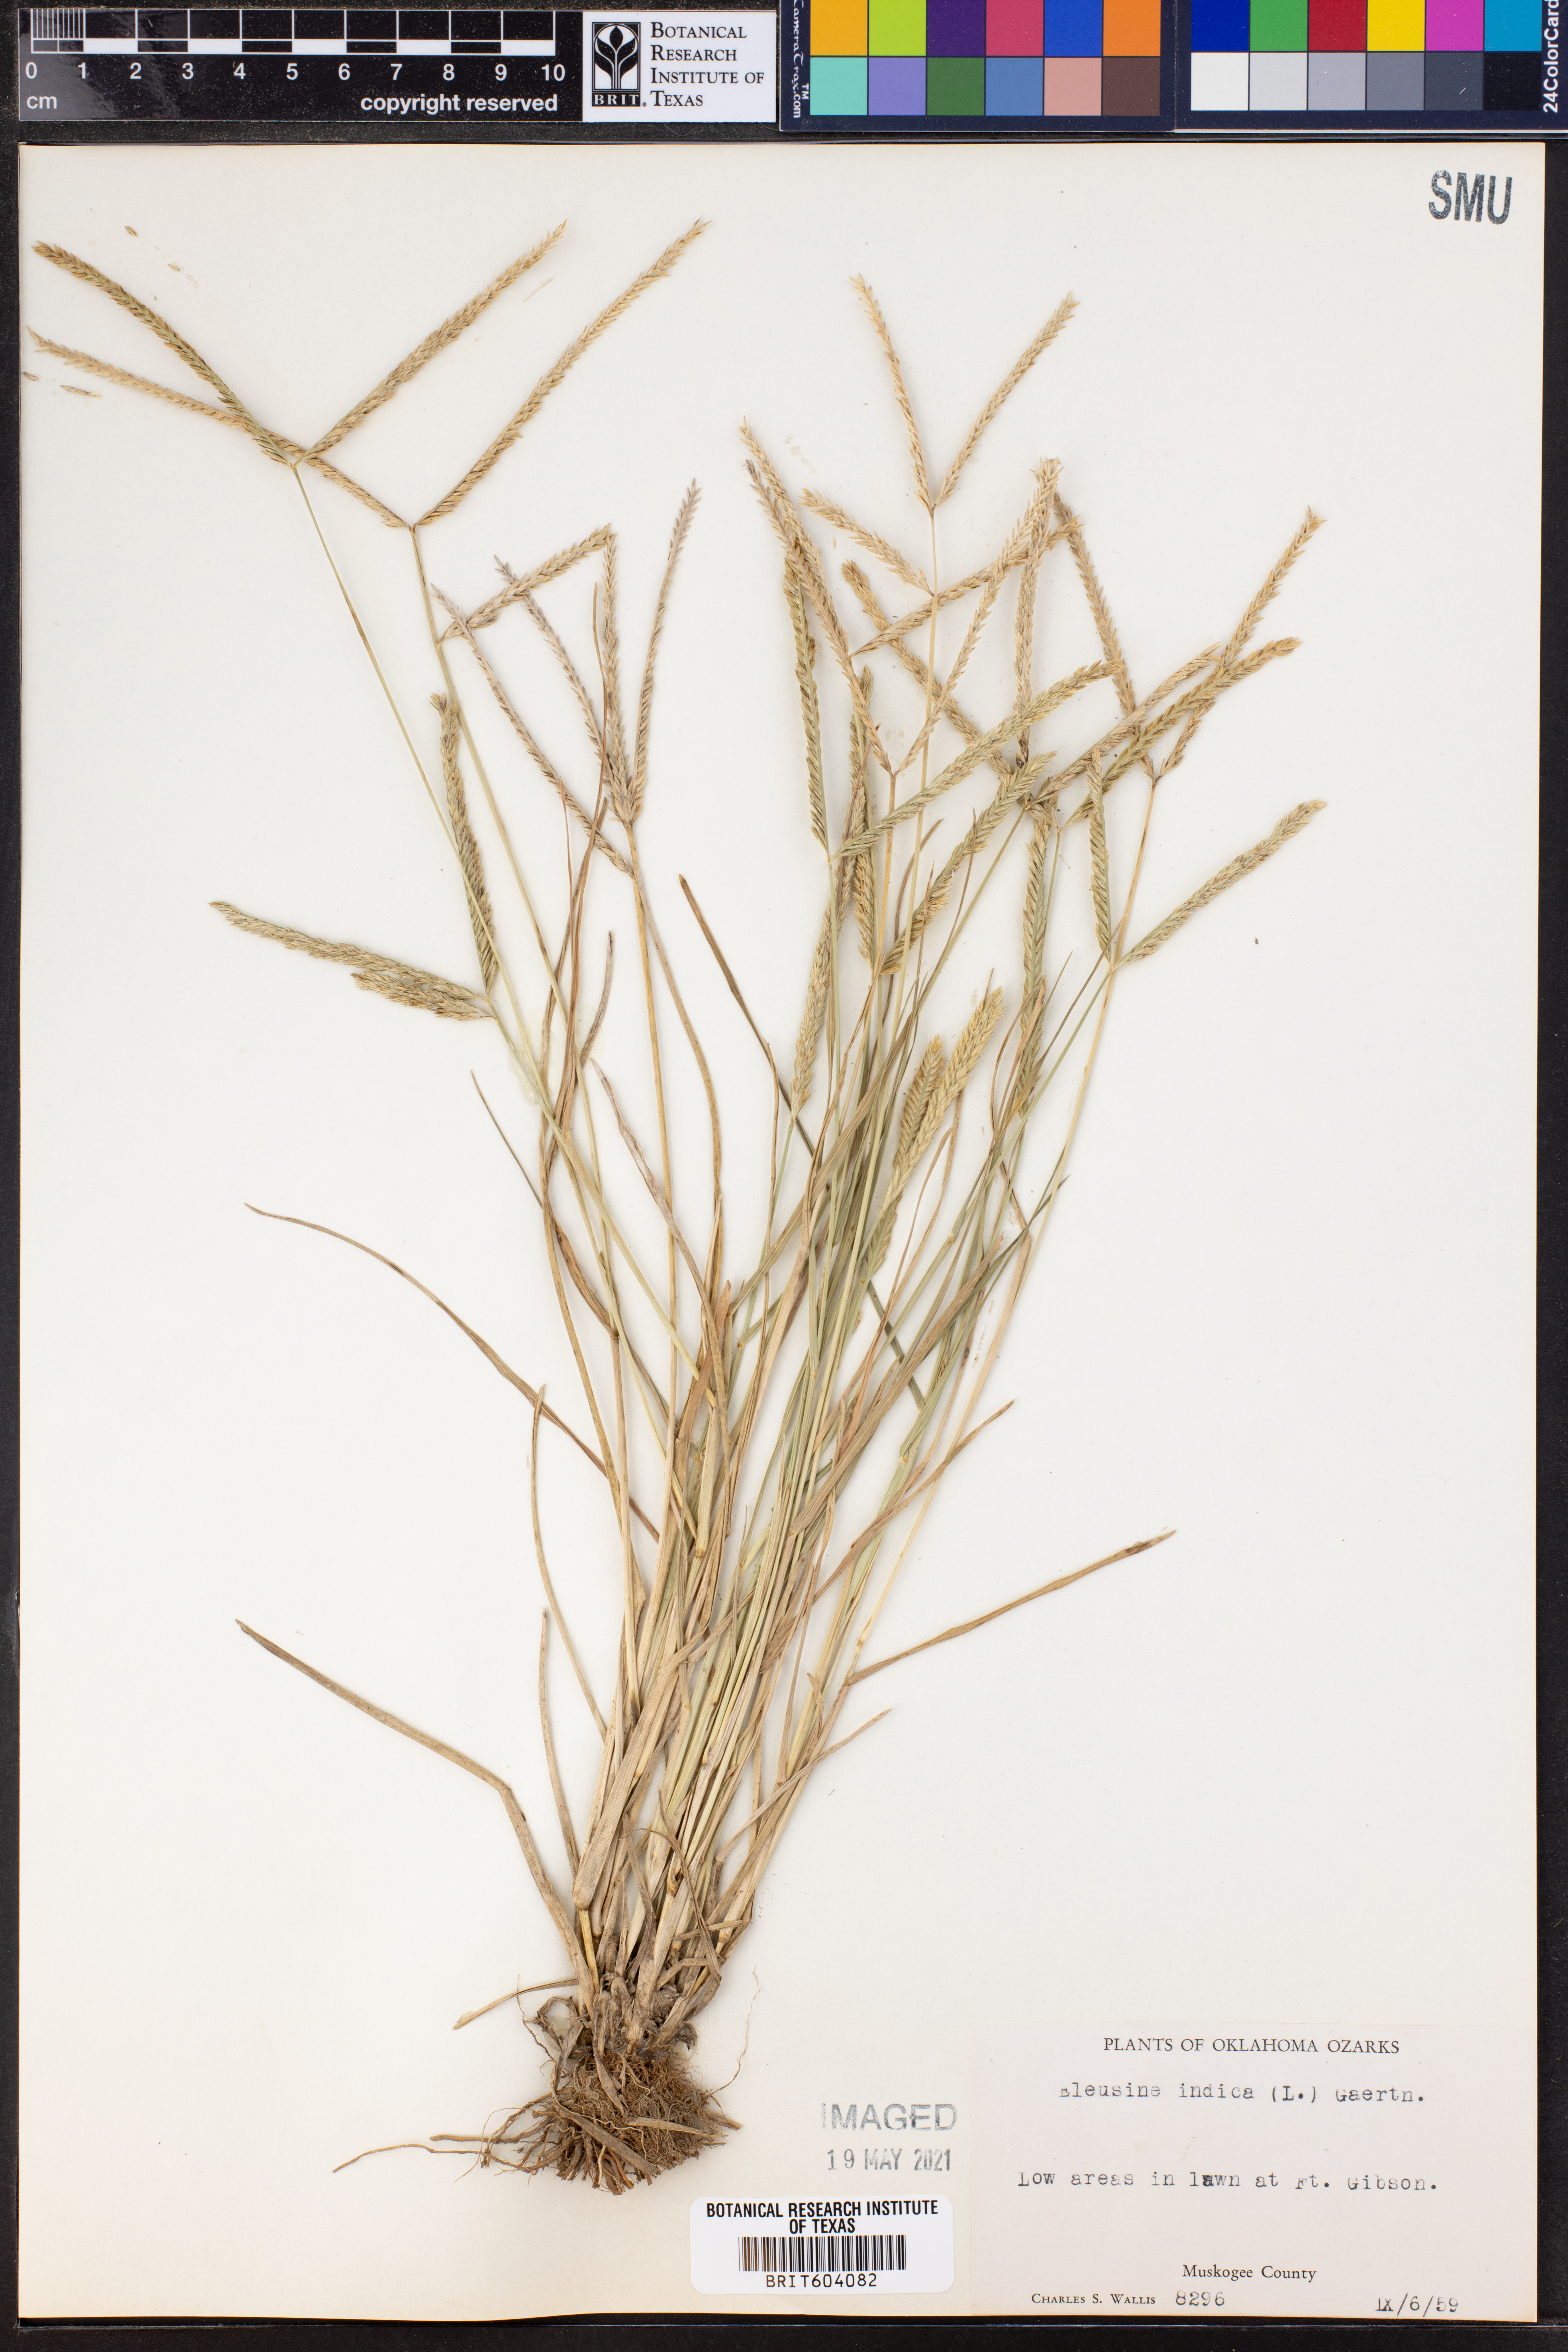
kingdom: Plantae
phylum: Tracheophyta
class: Liliopsida
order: Poales
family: Poaceae
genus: Eleusine
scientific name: Eleusine indica
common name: Yard-grass
